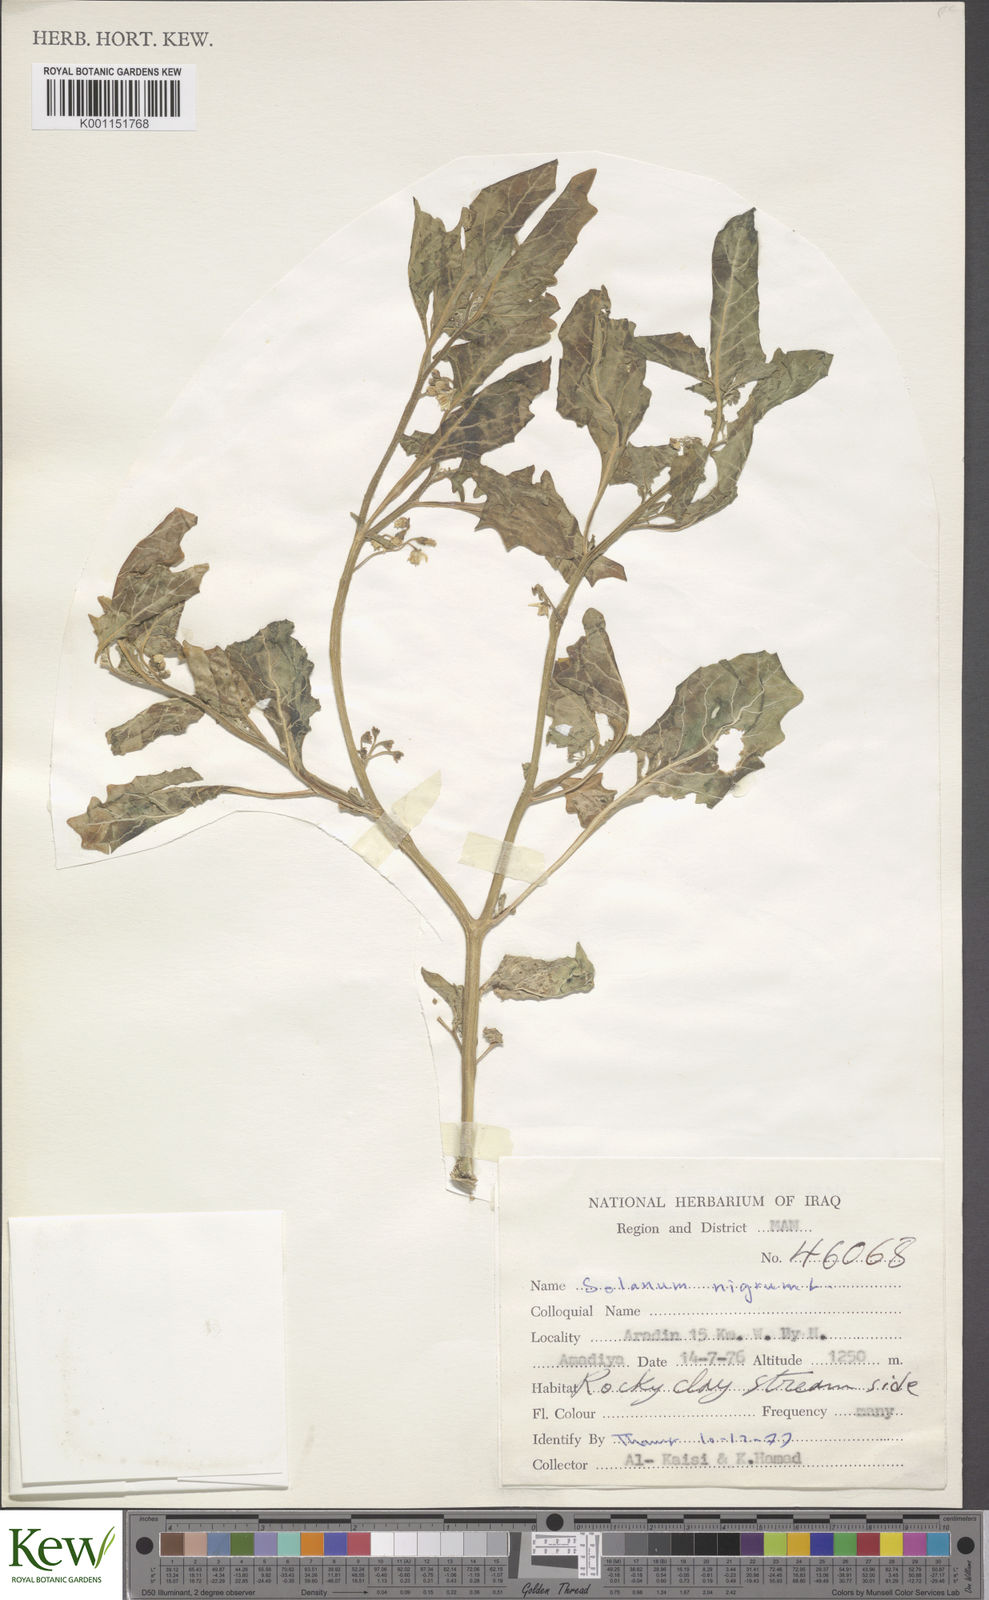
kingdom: Plantae
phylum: Tracheophyta
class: Magnoliopsida
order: Solanales
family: Solanaceae
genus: Solanum
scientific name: Solanum nigrum
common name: Black nightshade
